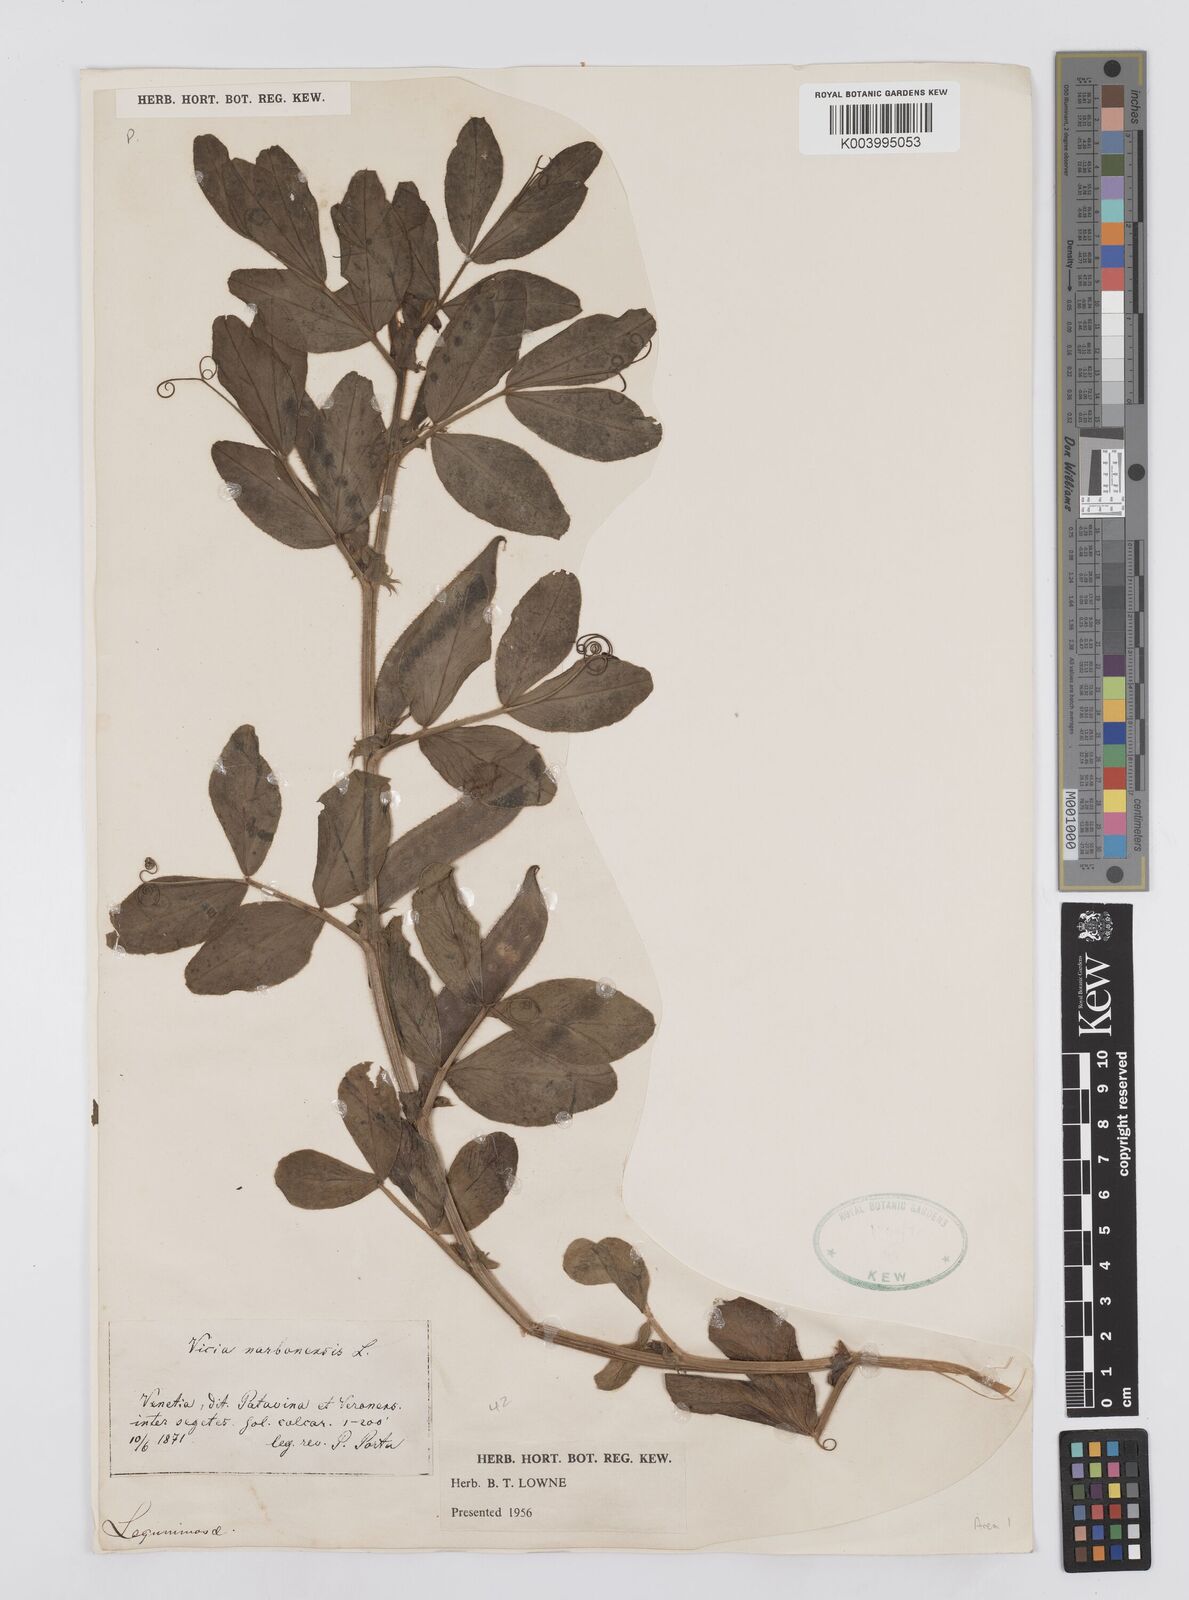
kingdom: Plantae
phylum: Tracheophyta
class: Magnoliopsida
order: Fabales
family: Fabaceae
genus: Vicia
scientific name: Vicia narbonensis
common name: Narbonne vetch
